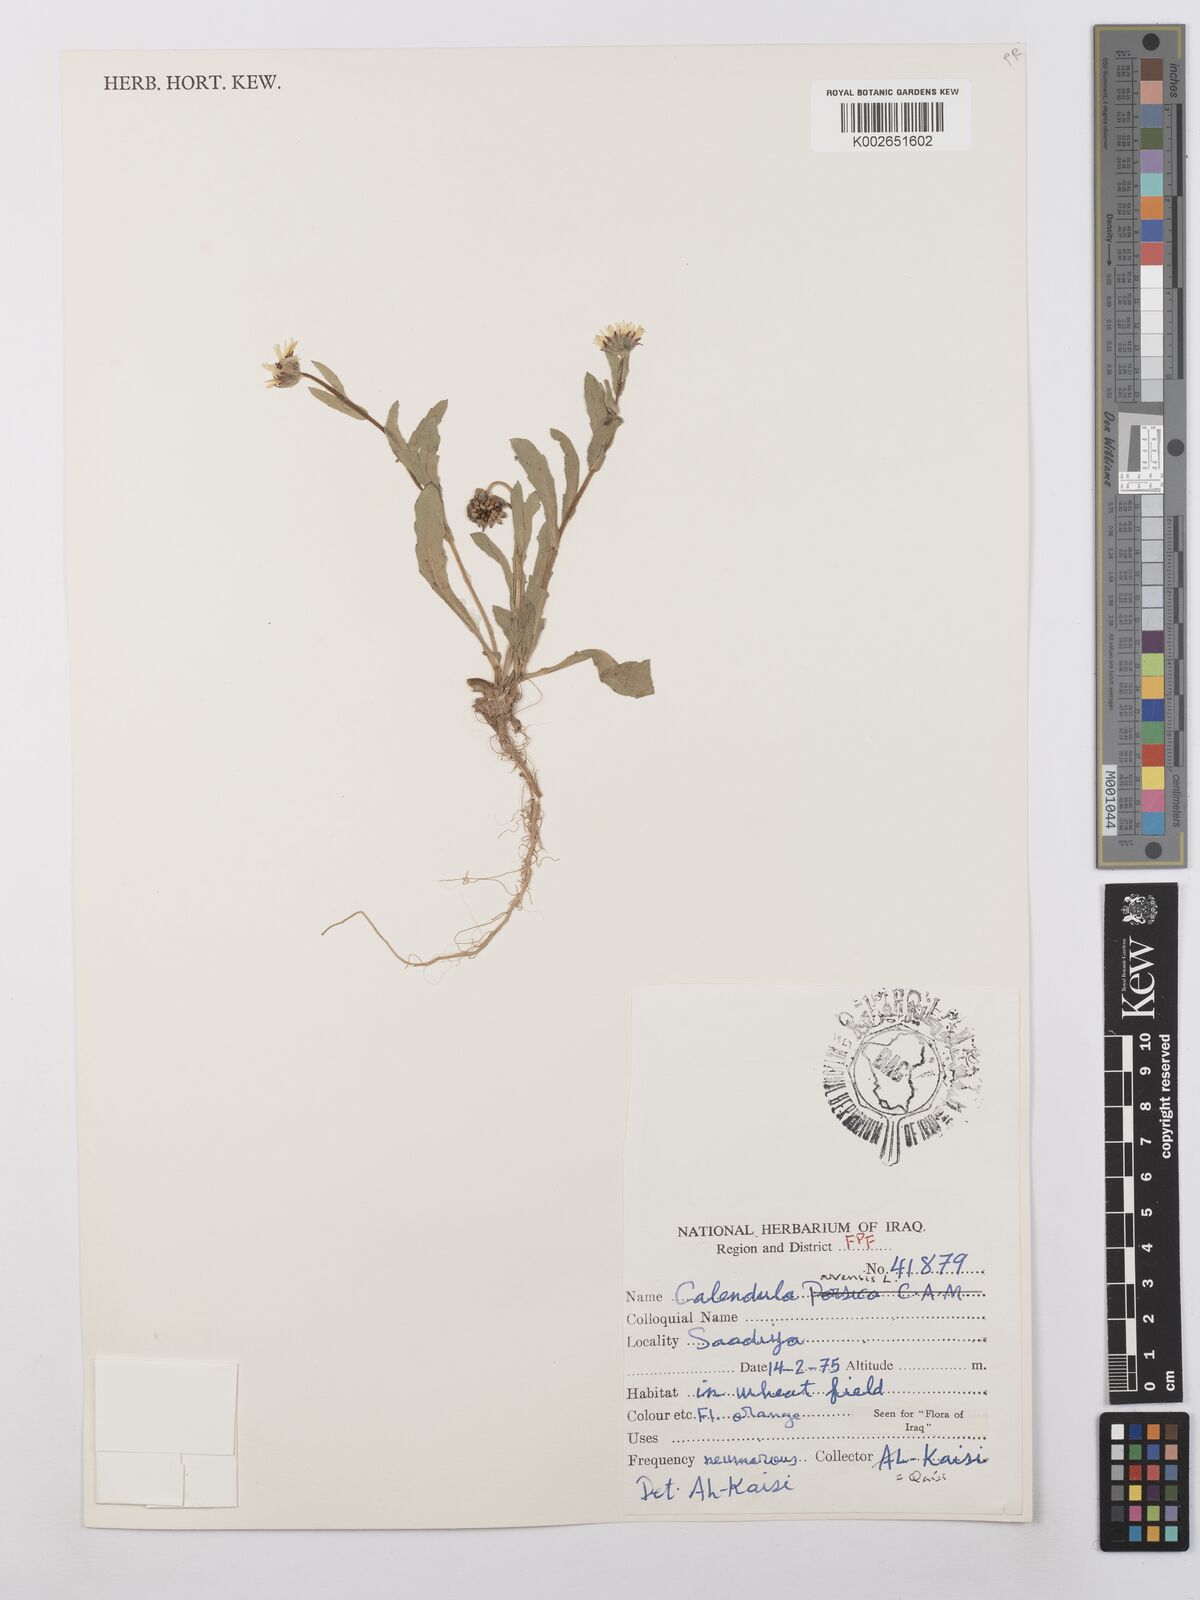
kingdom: Plantae
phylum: Tracheophyta
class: Magnoliopsida
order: Asterales
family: Asteraceae
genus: Calendula
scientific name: Calendula arvensis
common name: Field marigold
